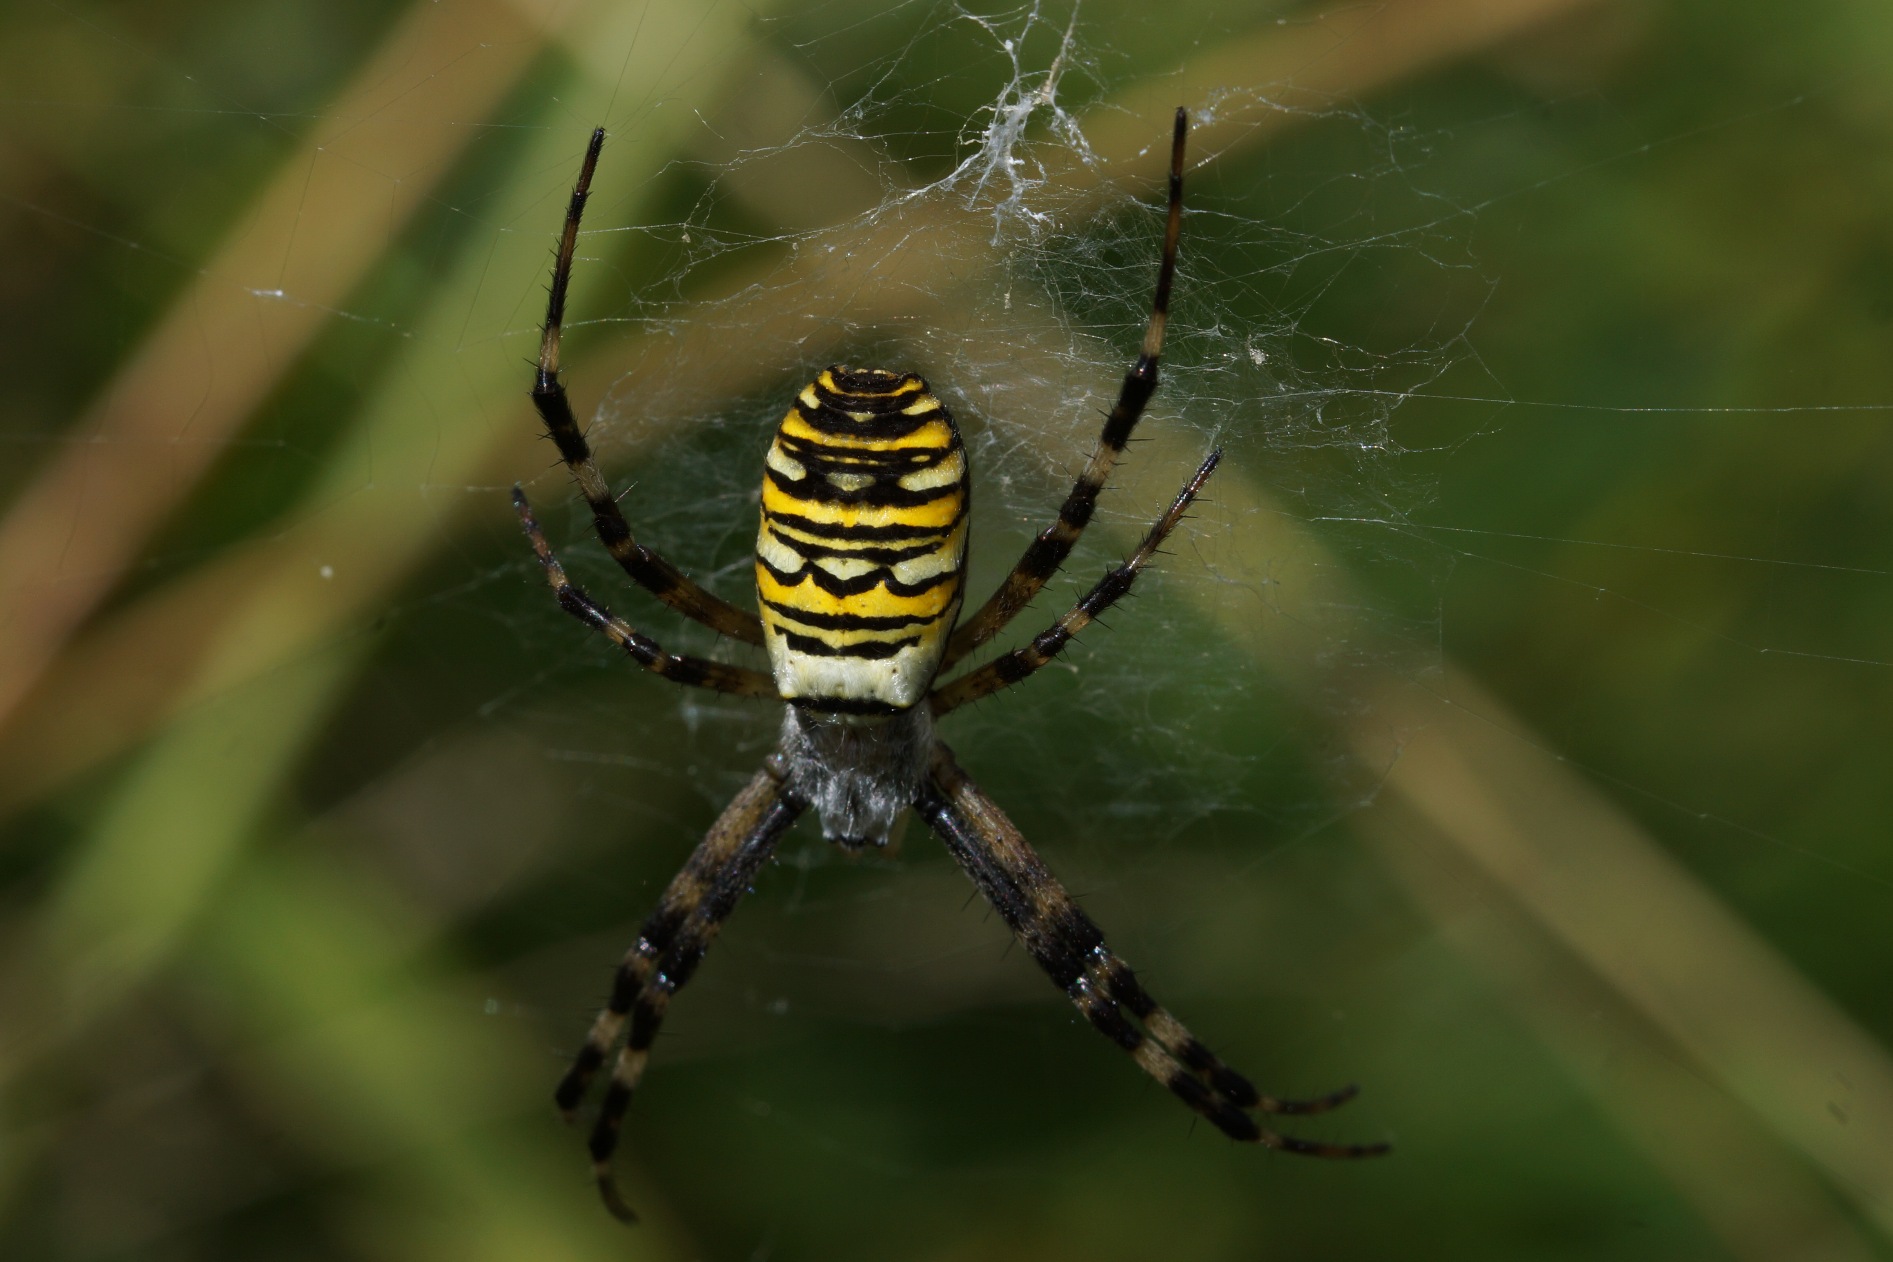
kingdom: Animalia
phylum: Arthropoda
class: Arachnida
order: Araneae
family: Araneidae
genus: Argiope
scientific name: Argiope bruennichi
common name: Hvepseedderkop
